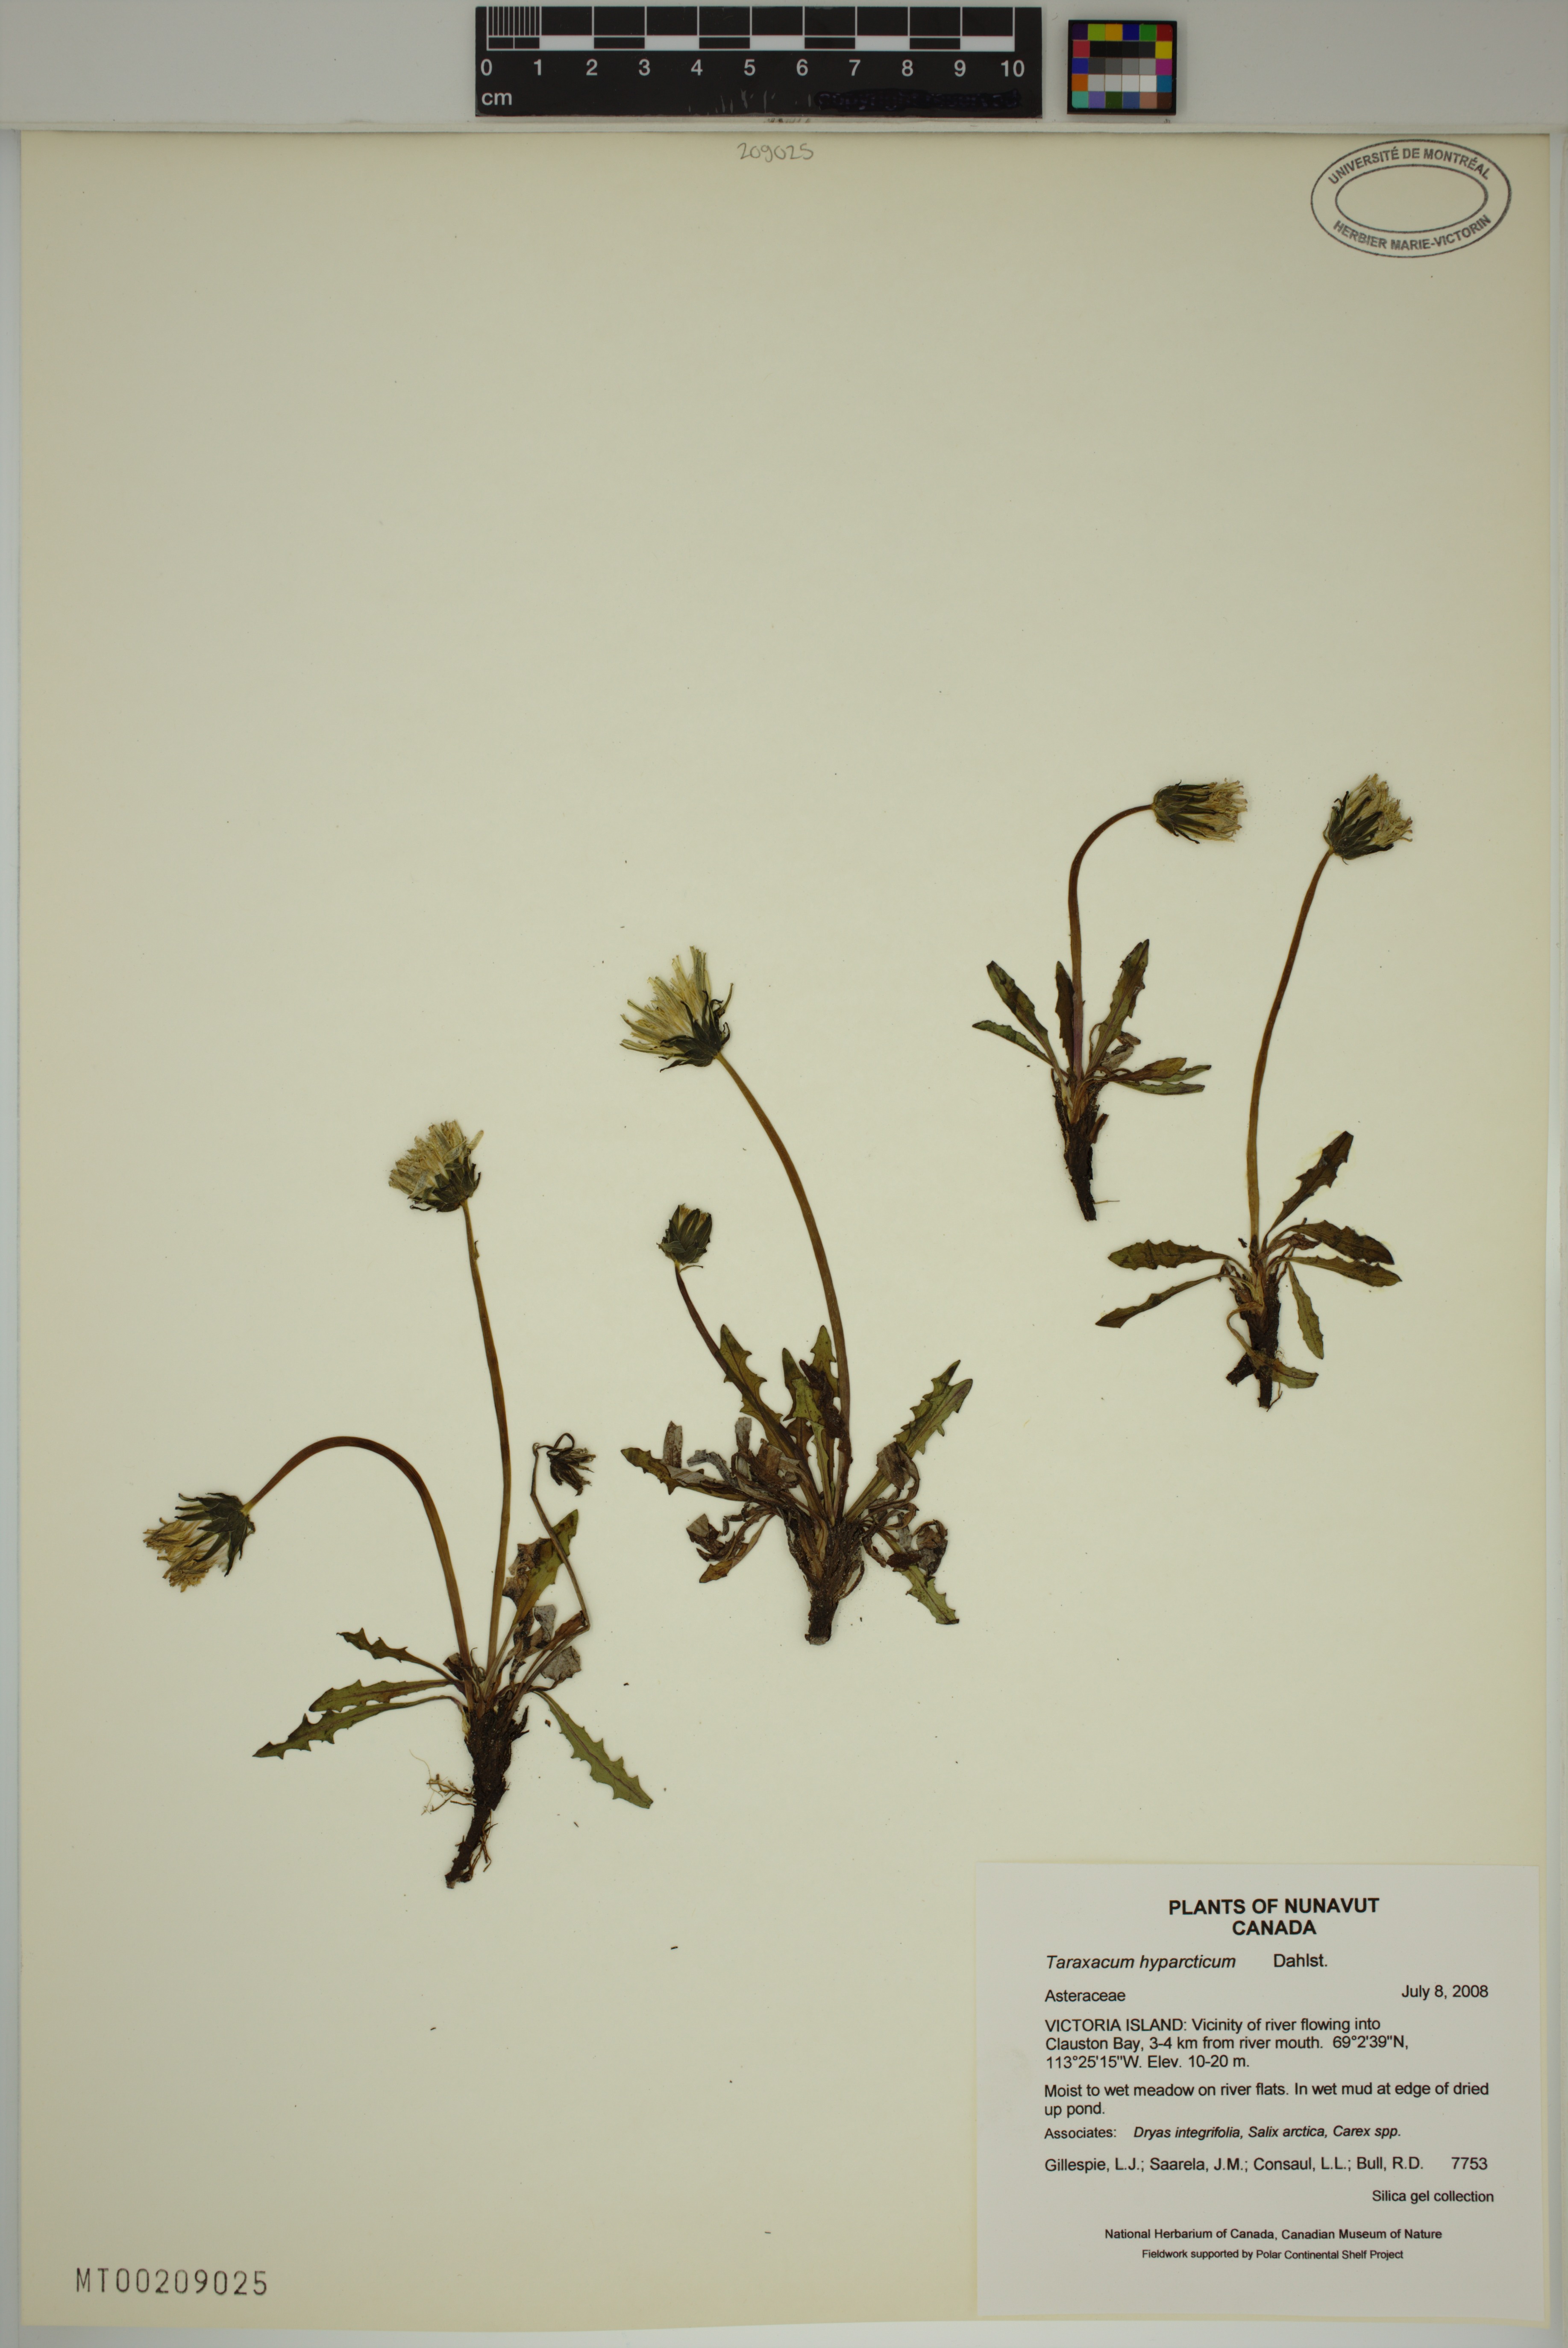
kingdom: Plantae
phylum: Tracheophyta
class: Magnoliopsida
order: Asterales
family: Asteraceae
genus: Taraxacum
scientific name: Taraxacum hyparcticum
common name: High arctic dandelion
